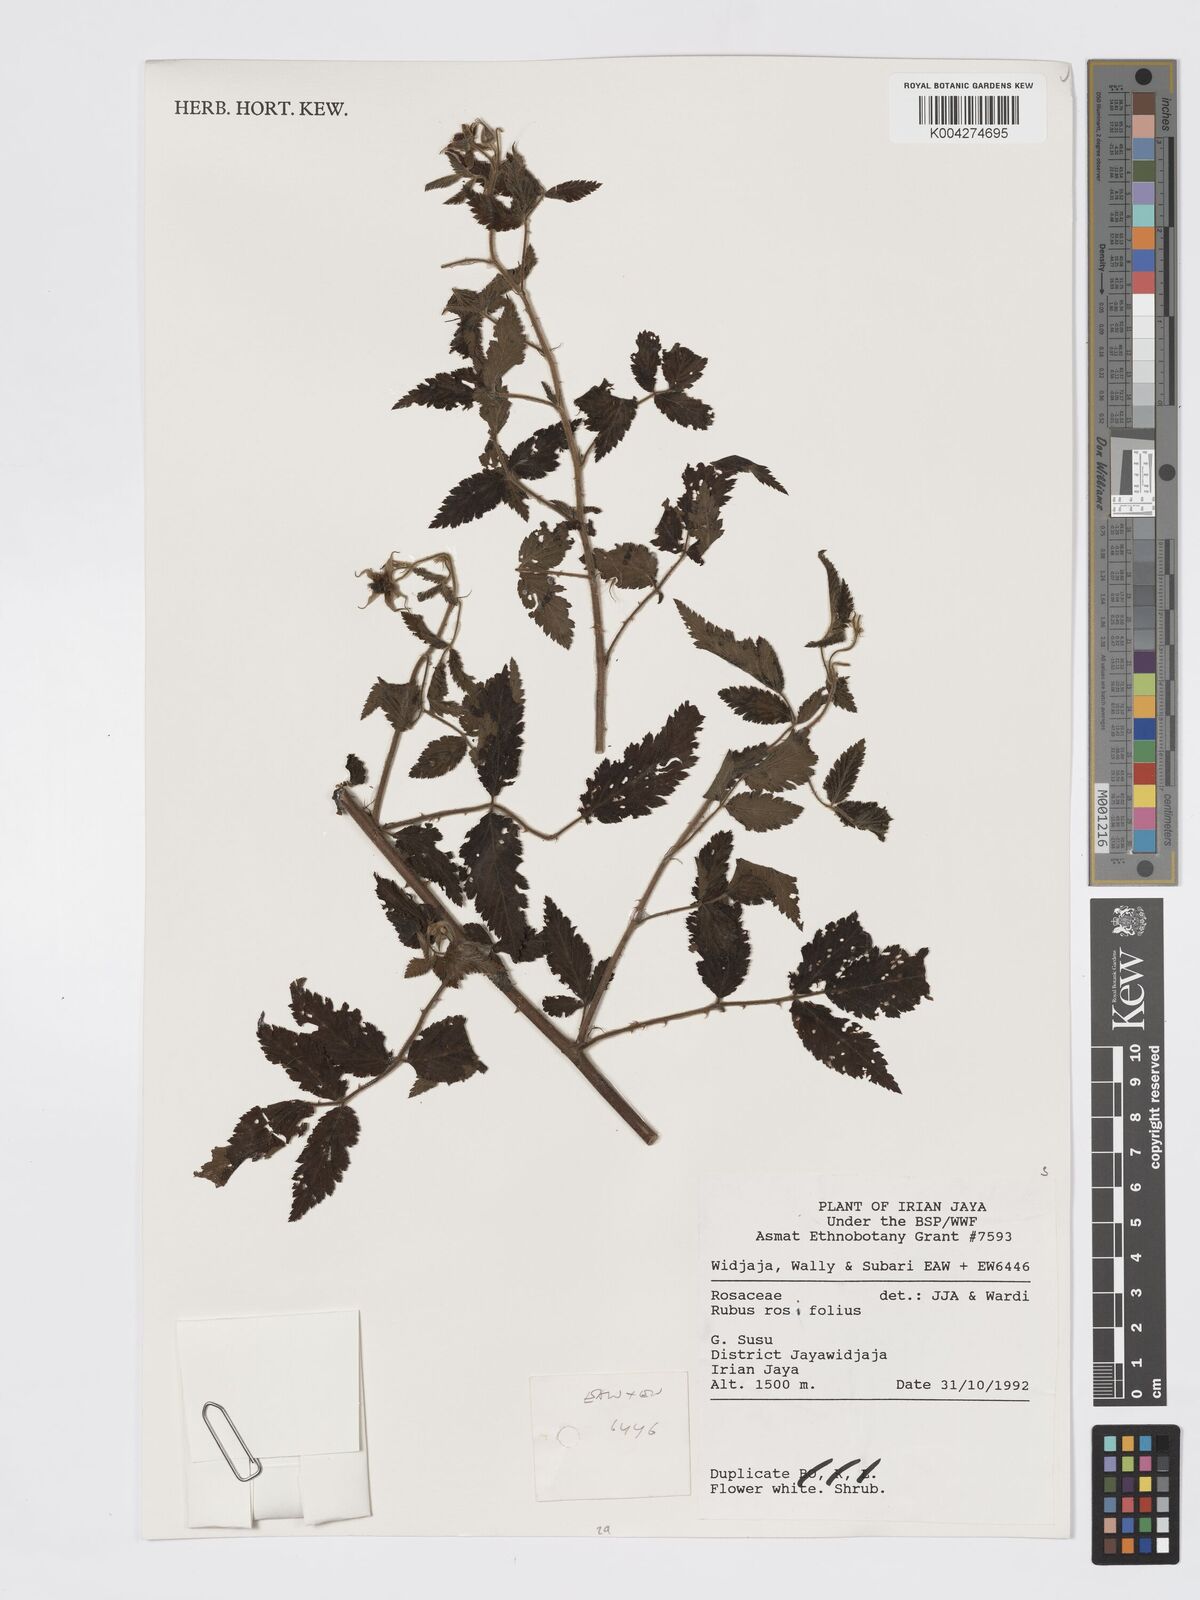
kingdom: Plantae
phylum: Tracheophyta
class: Magnoliopsida
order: Rosales
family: Rosaceae
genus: Rubus
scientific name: Rubus
